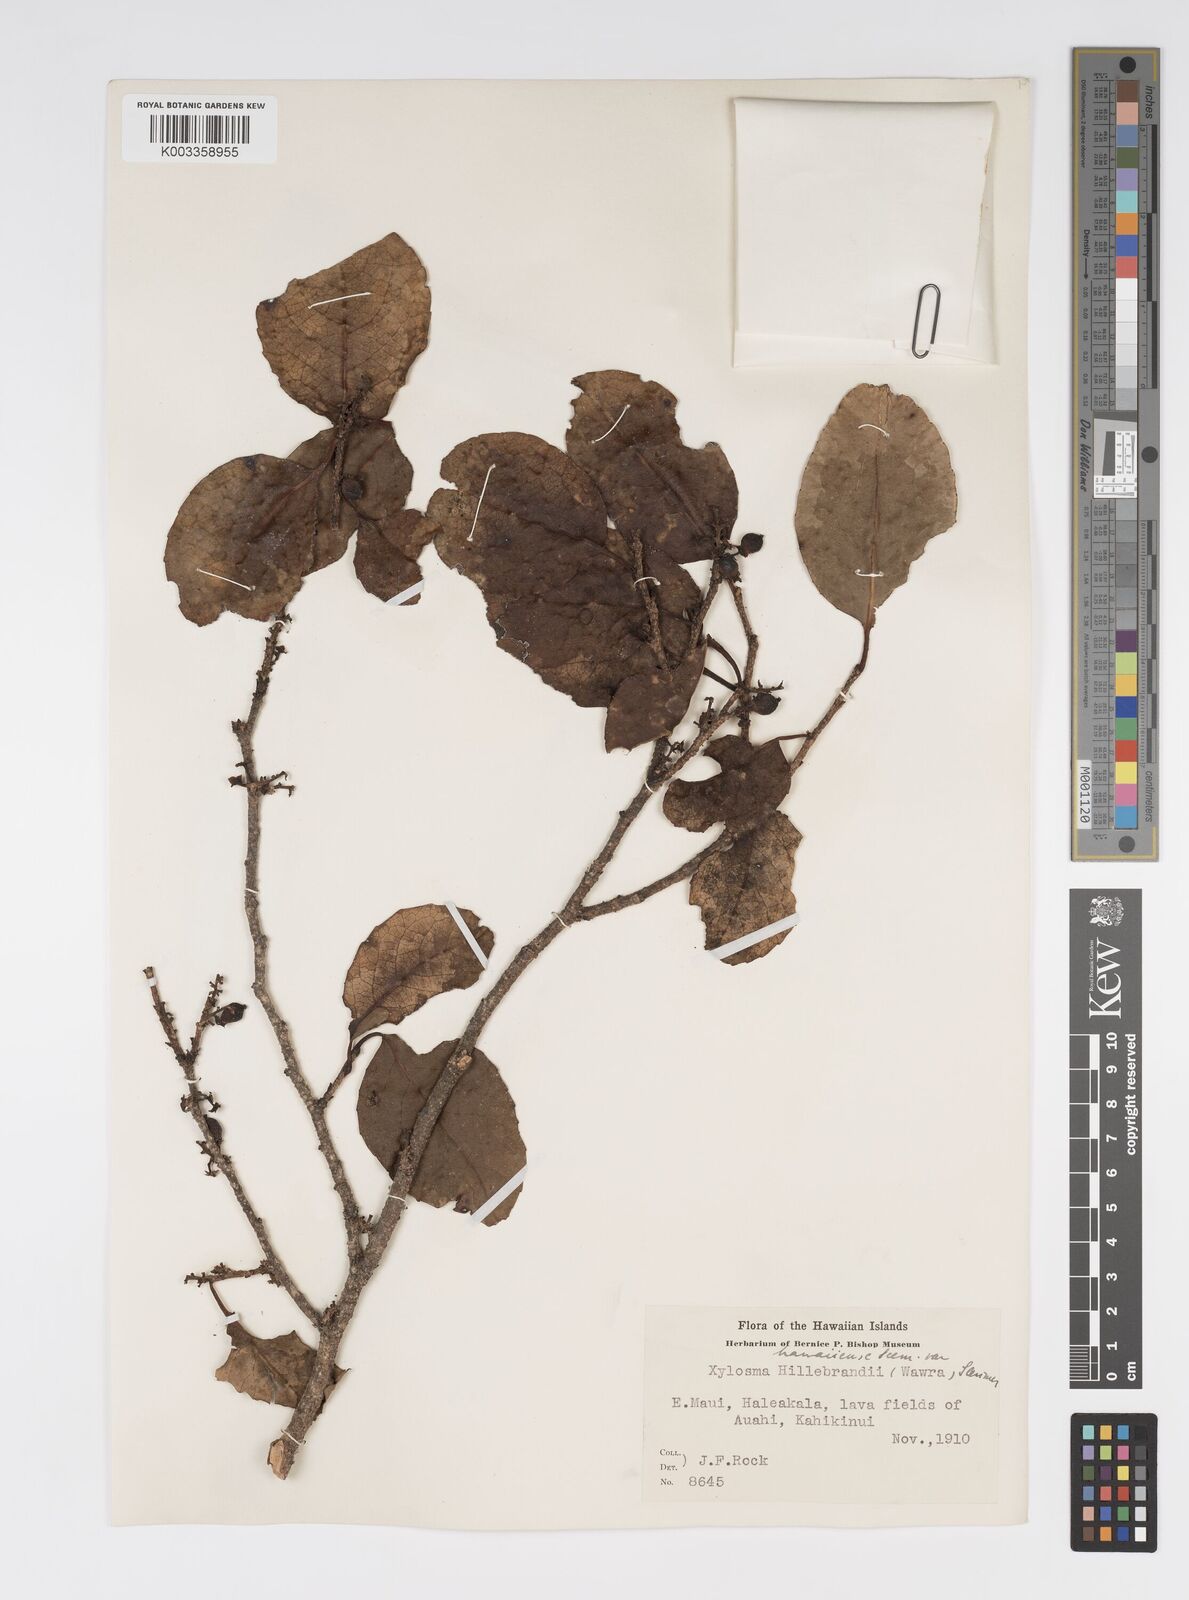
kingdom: Plantae
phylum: Tracheophyta
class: Magnoliopsida
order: Malpighiales
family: Salicaceae
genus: Xylosma
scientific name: Xylosma hawaiense
